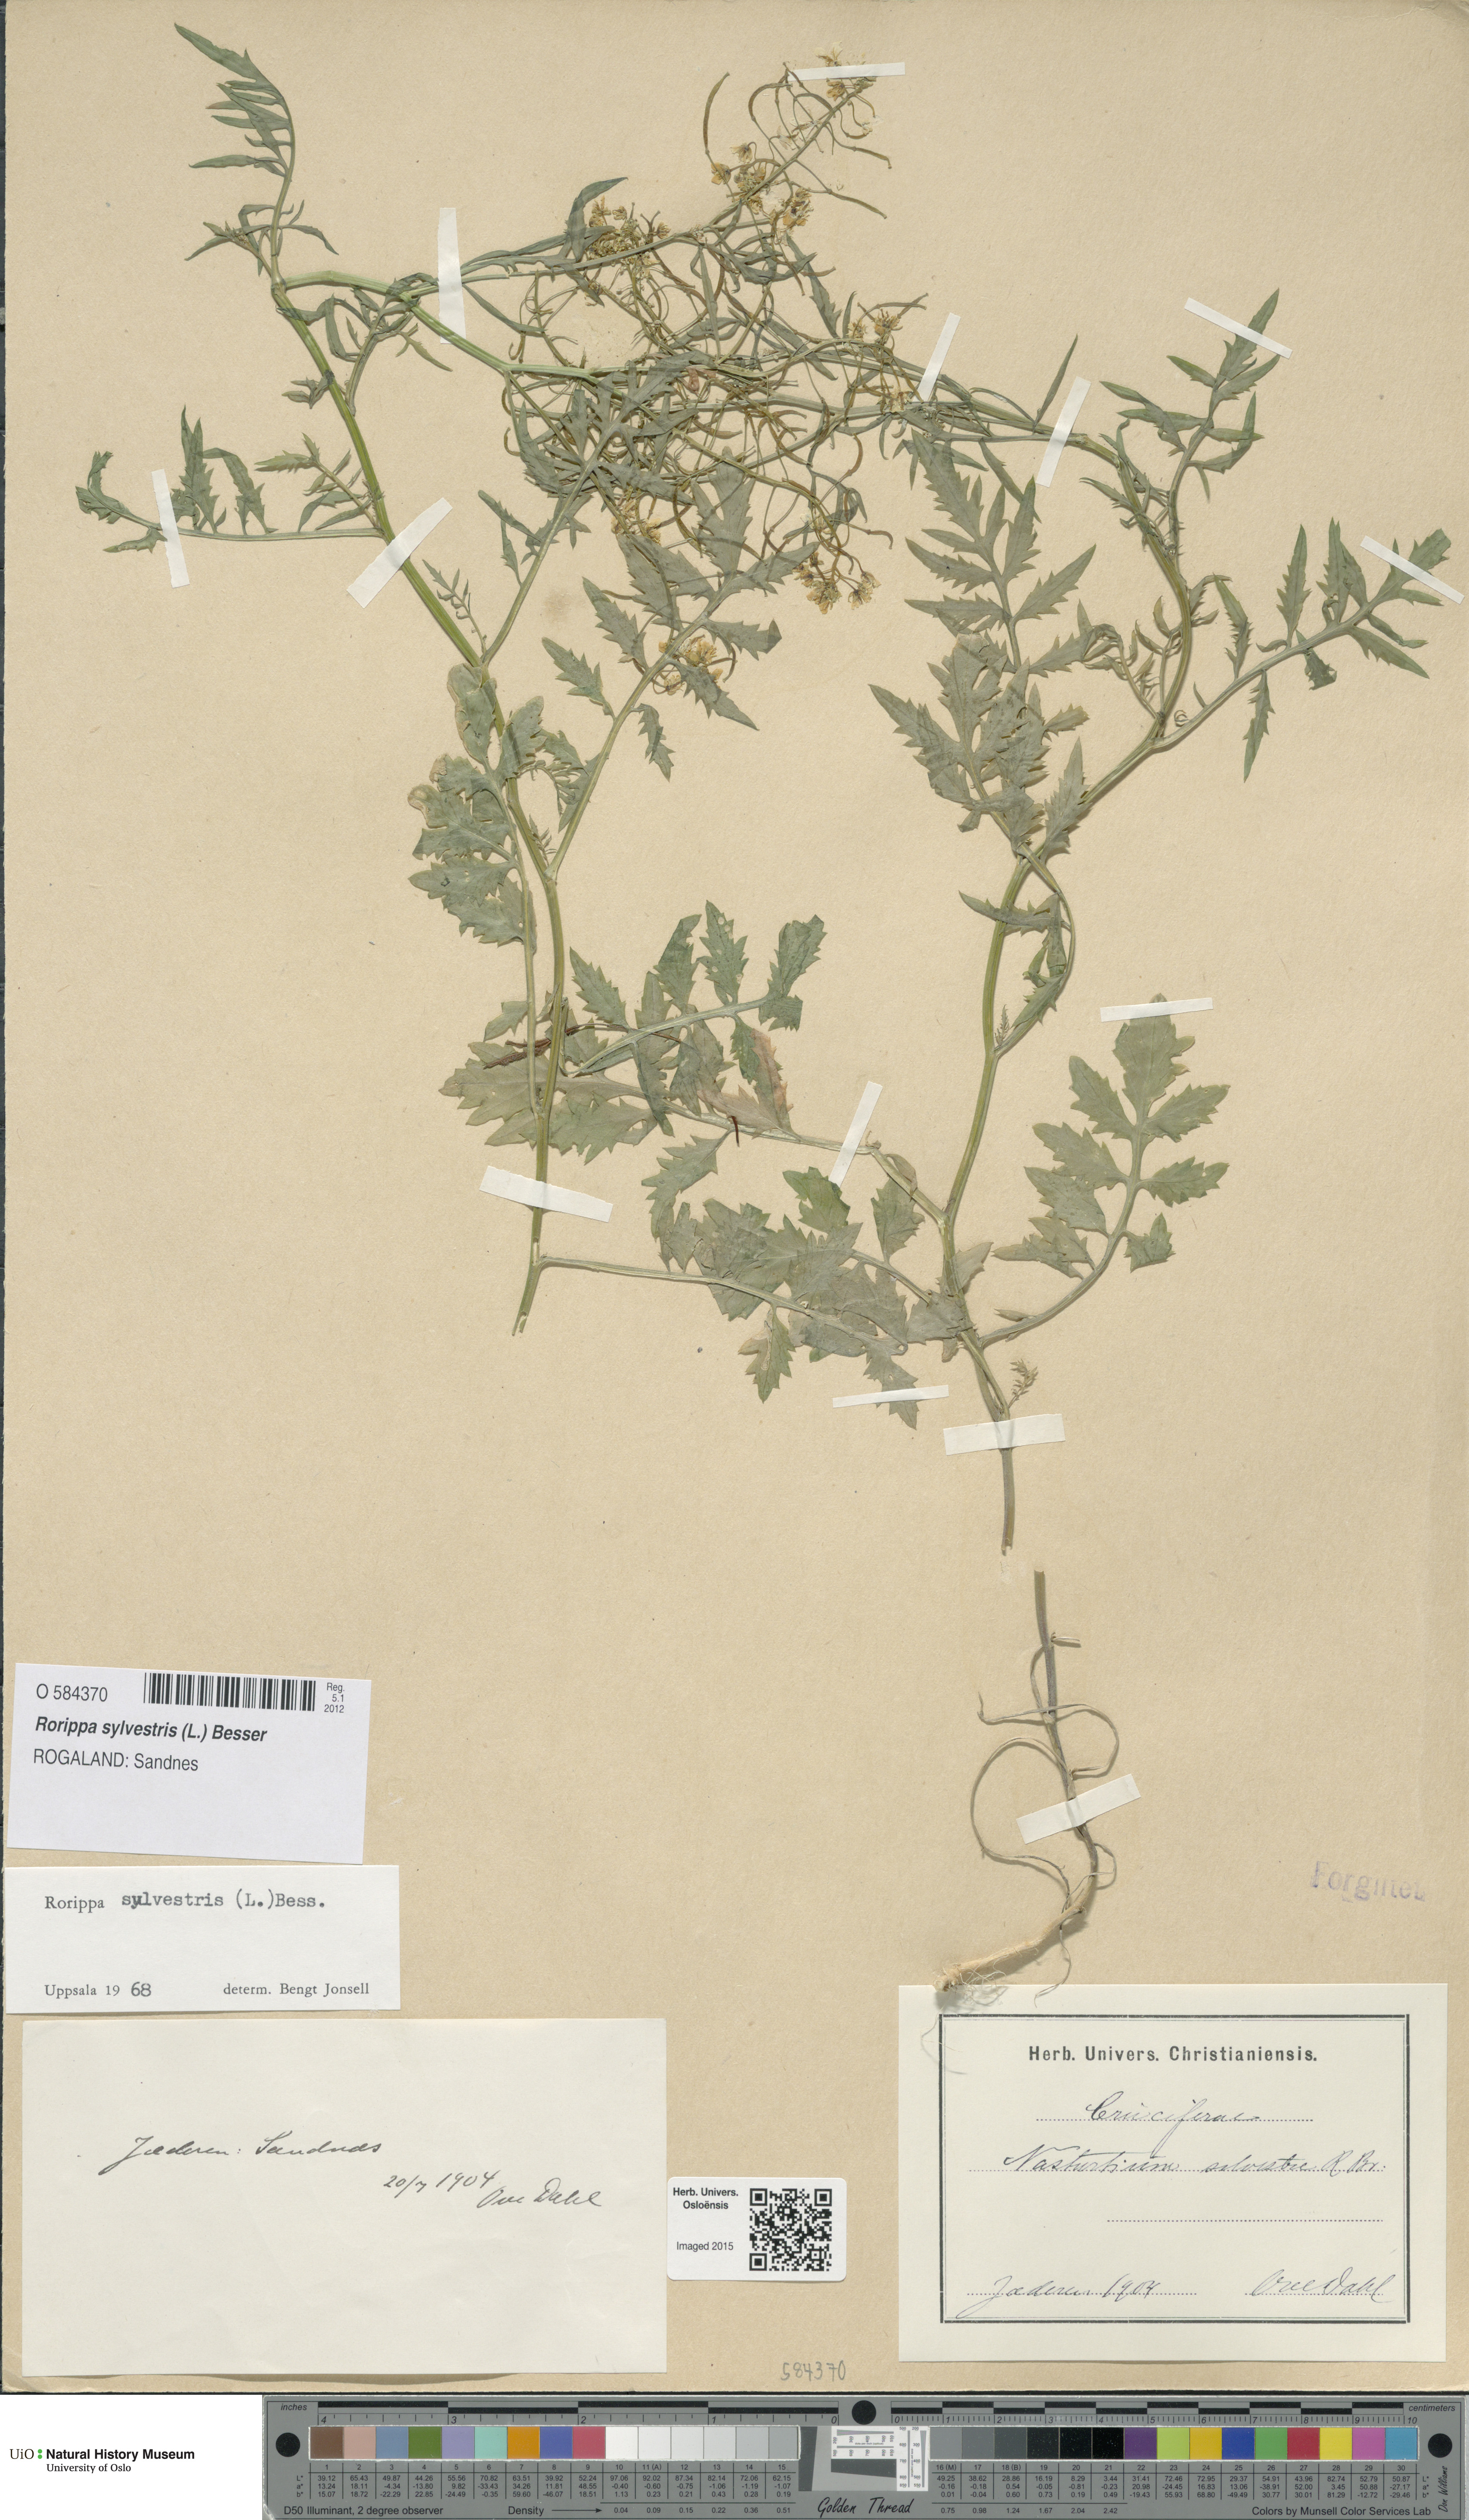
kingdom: Plantae
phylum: Tracheophyta
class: Magnoliopsida
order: Brassicales
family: Brassicaceae
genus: Rorippa
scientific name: Rorippa sylvestris
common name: Creeping yellowcress
